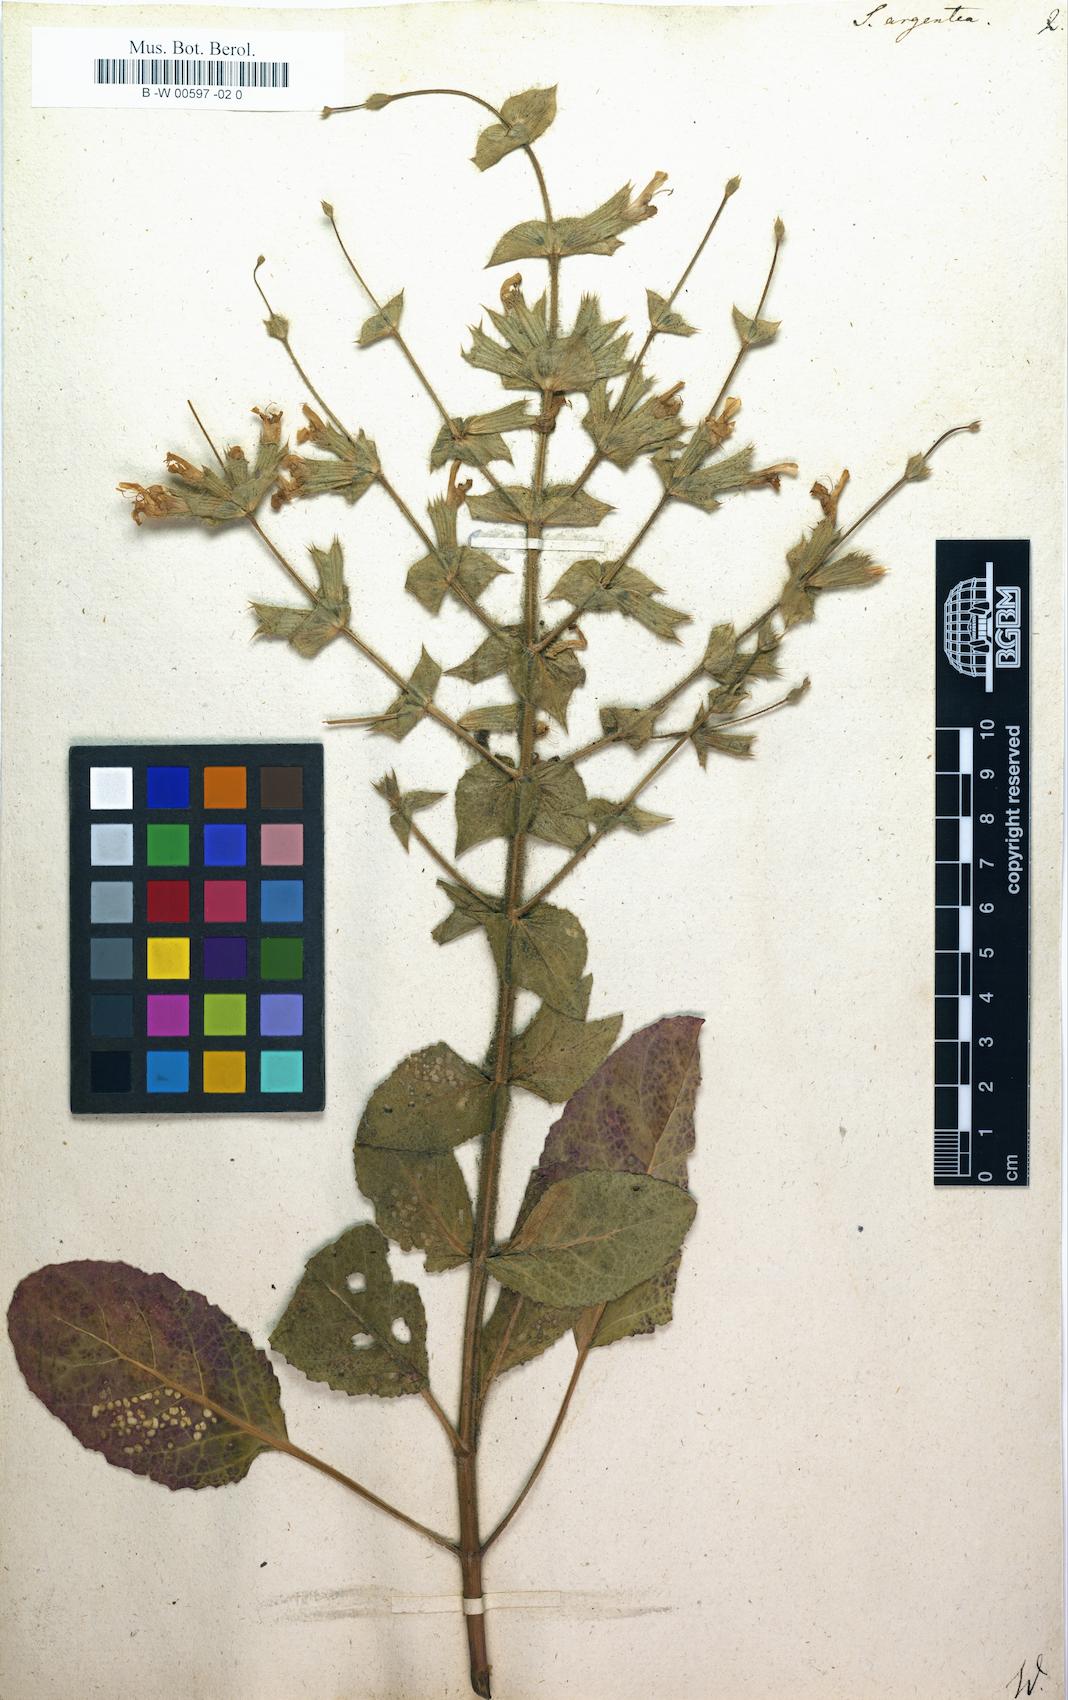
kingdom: Plantae
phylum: Tracheophyta
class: Magnoliopsida
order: Lamiales
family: Lamiaceae
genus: Salvia
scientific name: Salvia argentea
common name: Silver sage
